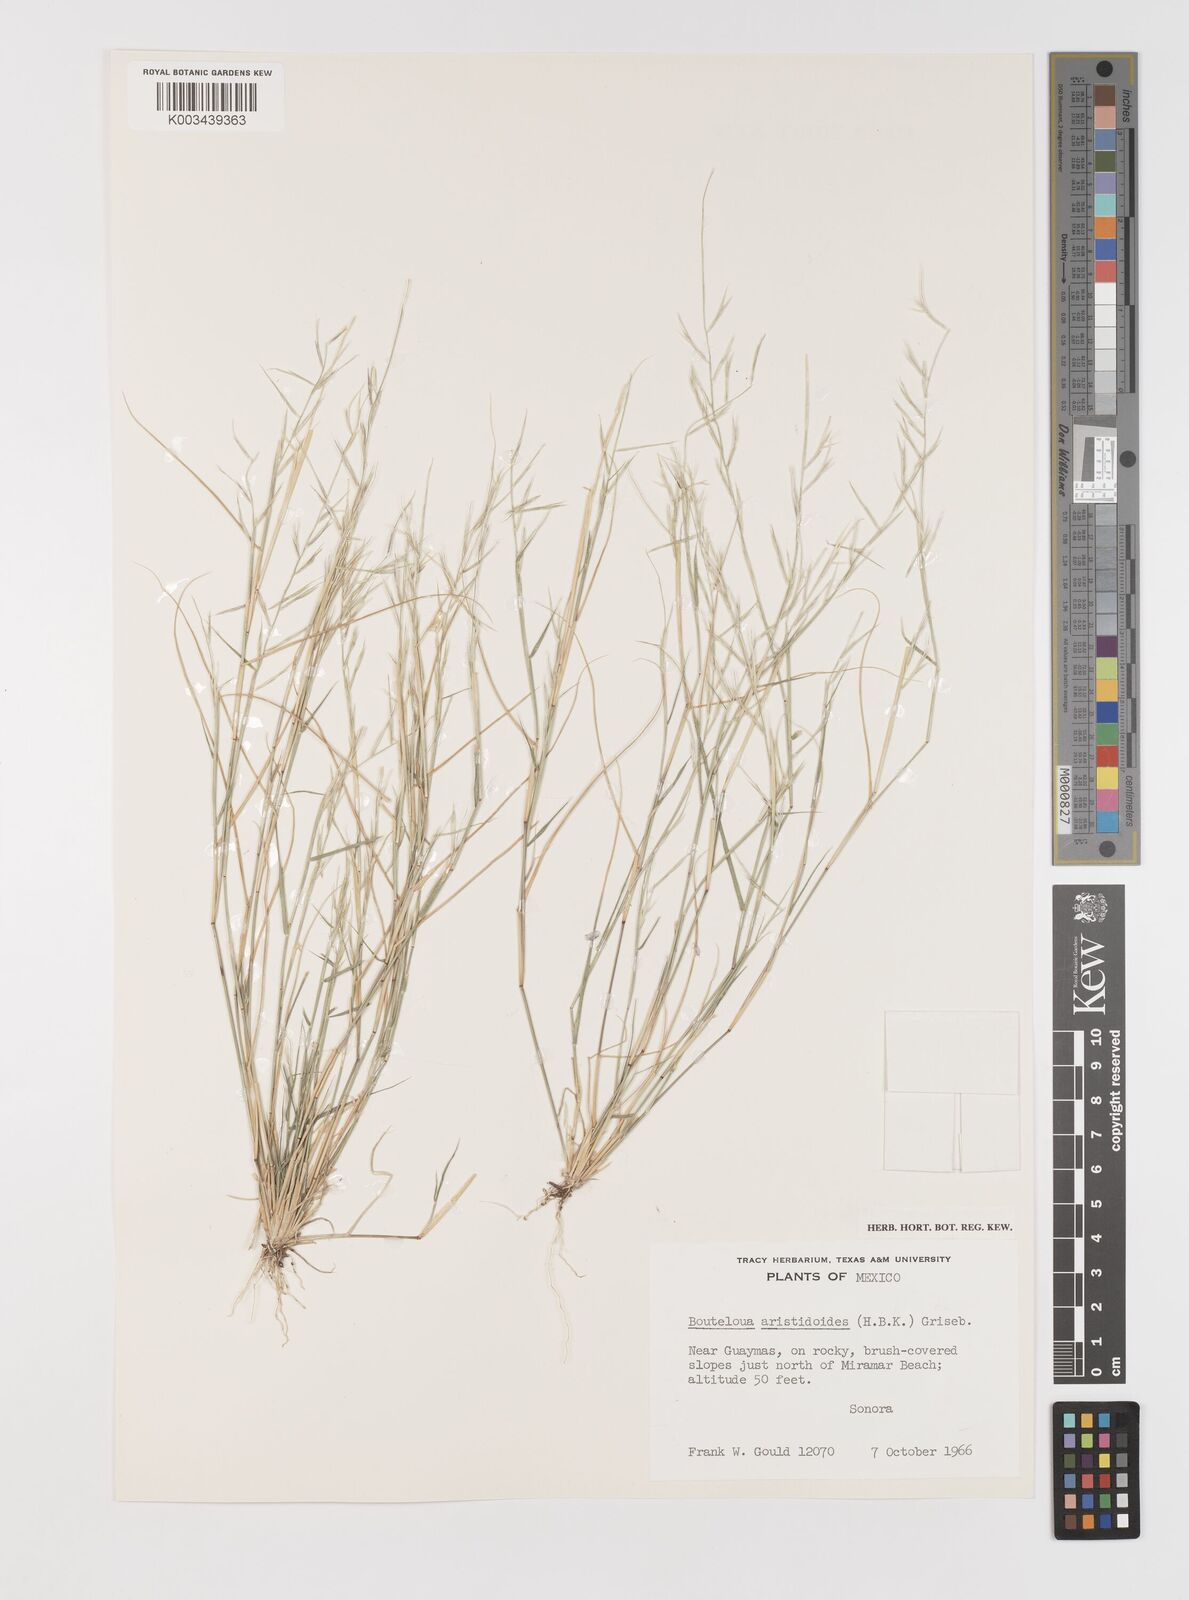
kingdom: Plantae
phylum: Tracheophyta
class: Liliopsida
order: Poales
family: Poaceae
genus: Bouteloua
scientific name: Bouteloua aristidoides
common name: Needle grama
